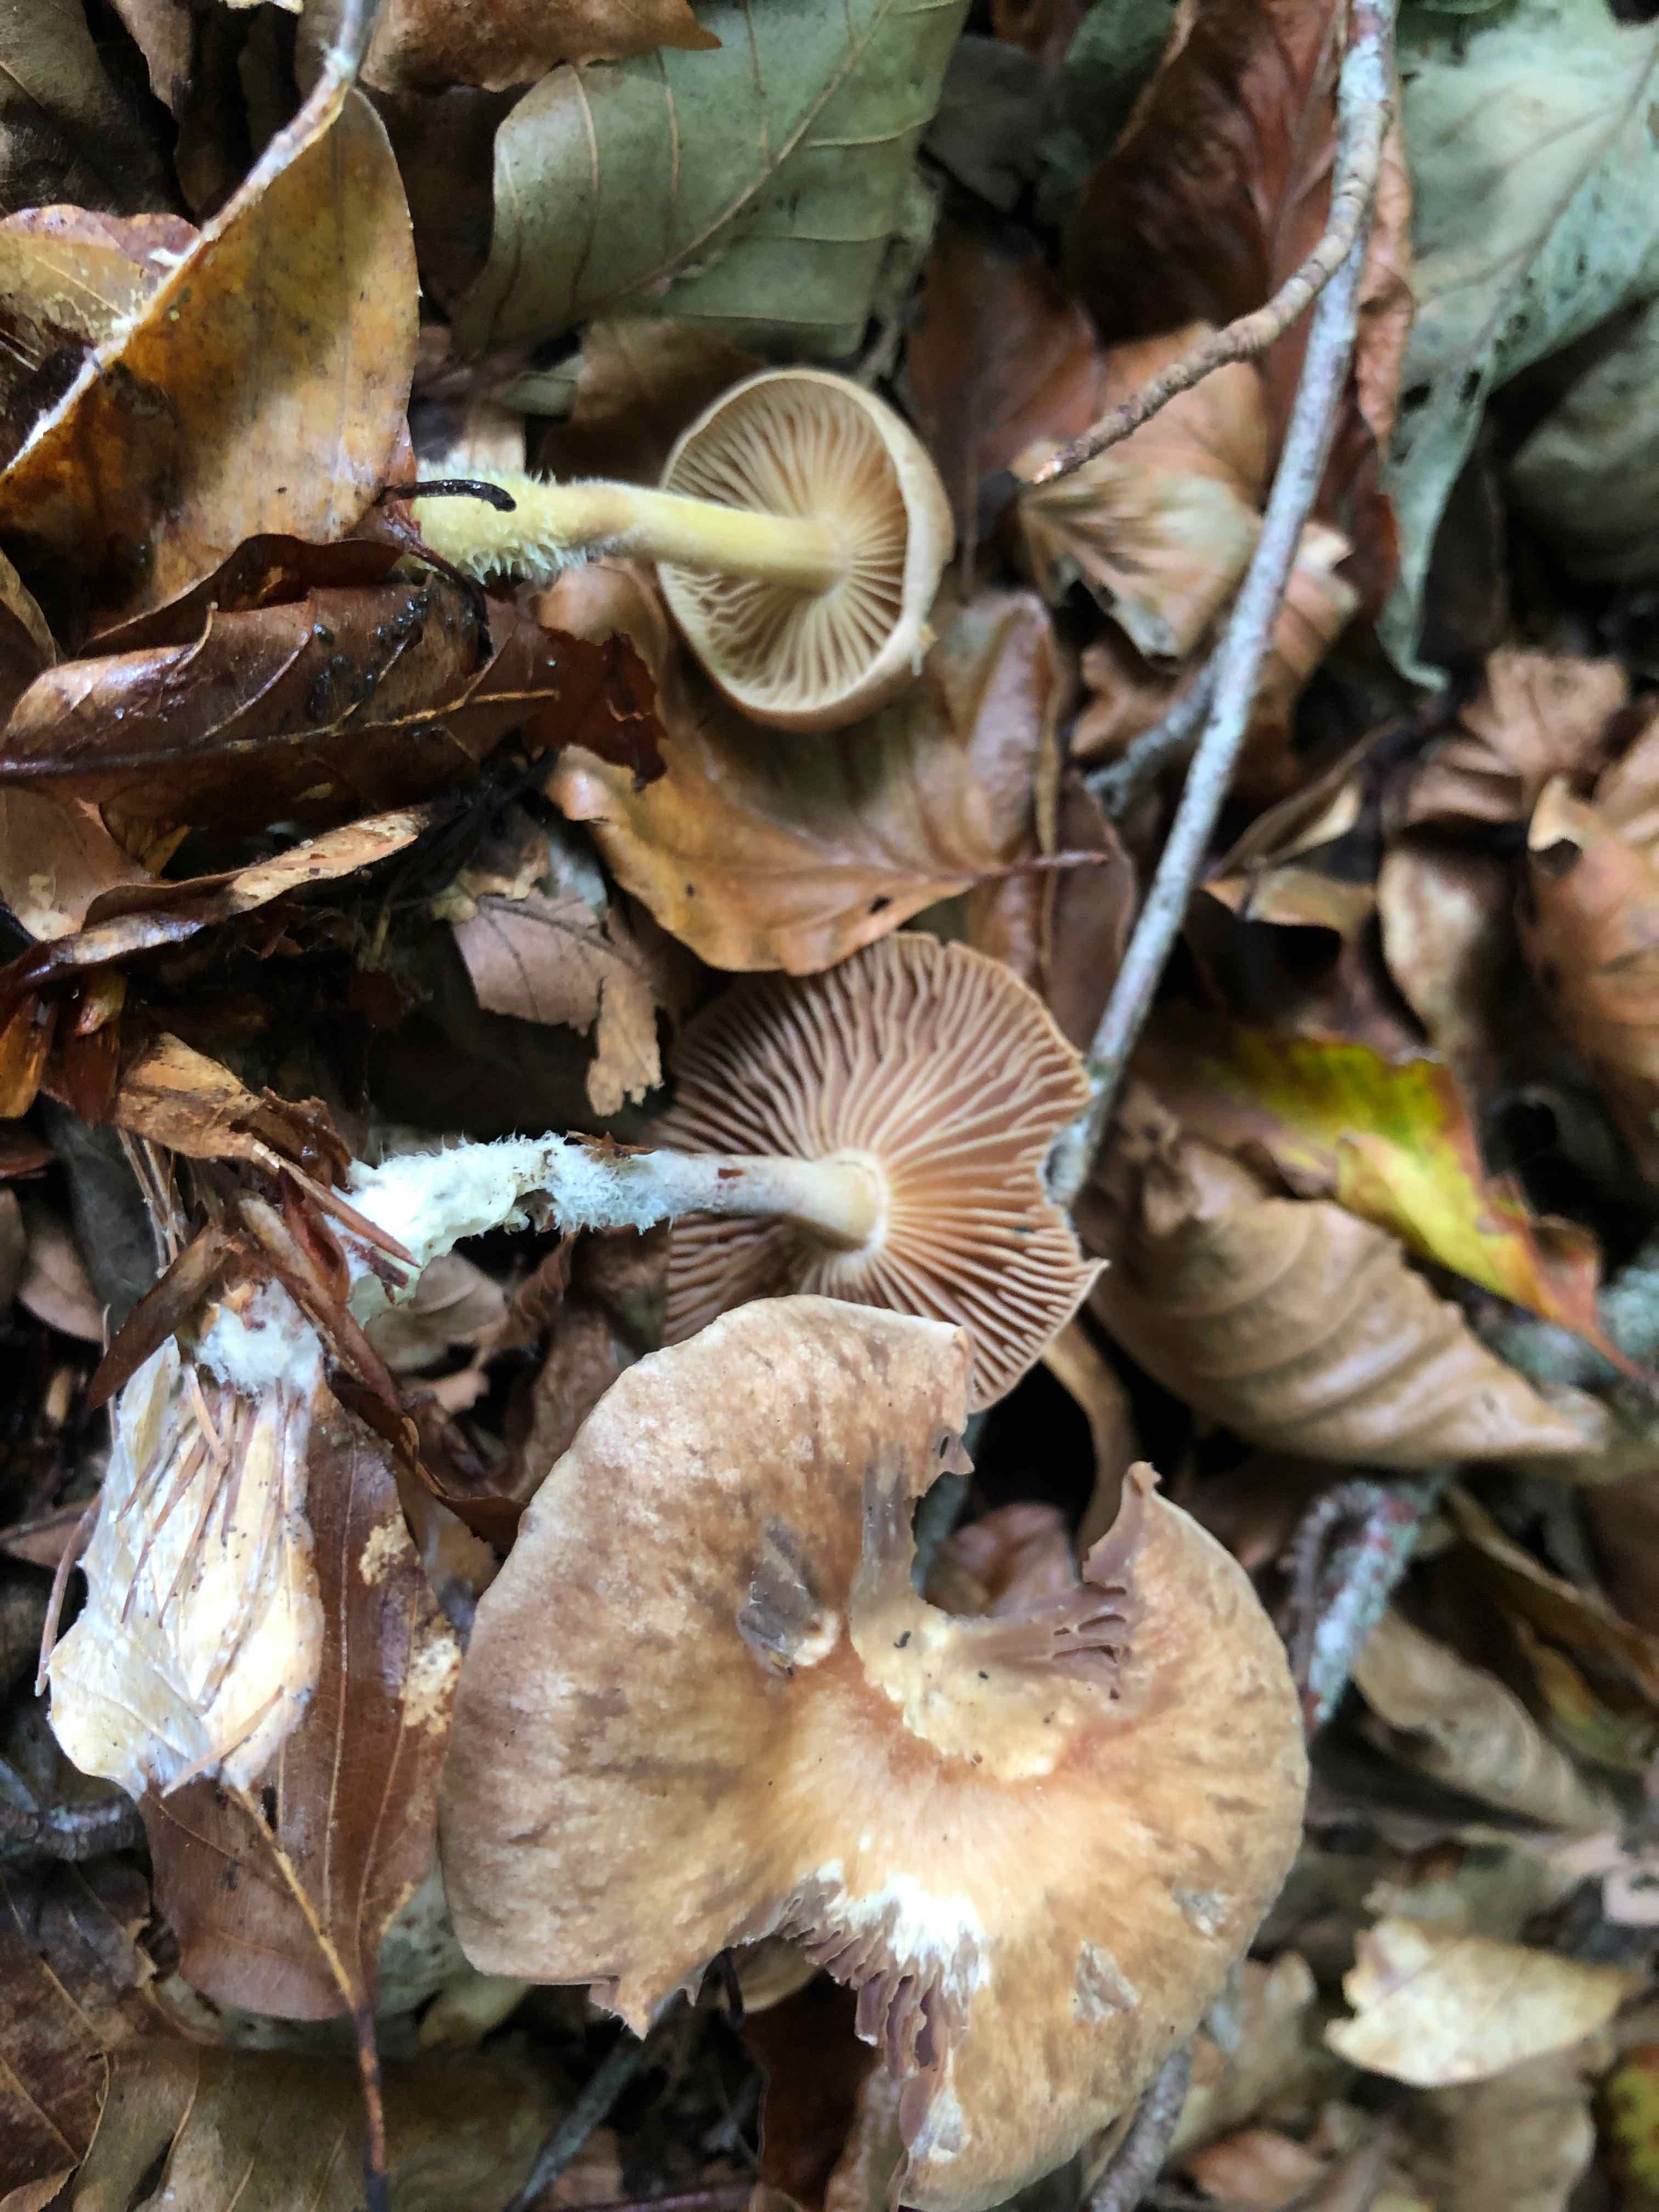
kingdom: Fungi
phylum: Basidiomycota
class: Agaricomycetes
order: Agaricales
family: Omphalotaceae
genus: Collybiopsis
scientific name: Collybiopsis peronata
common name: bestøvlet fladhat
